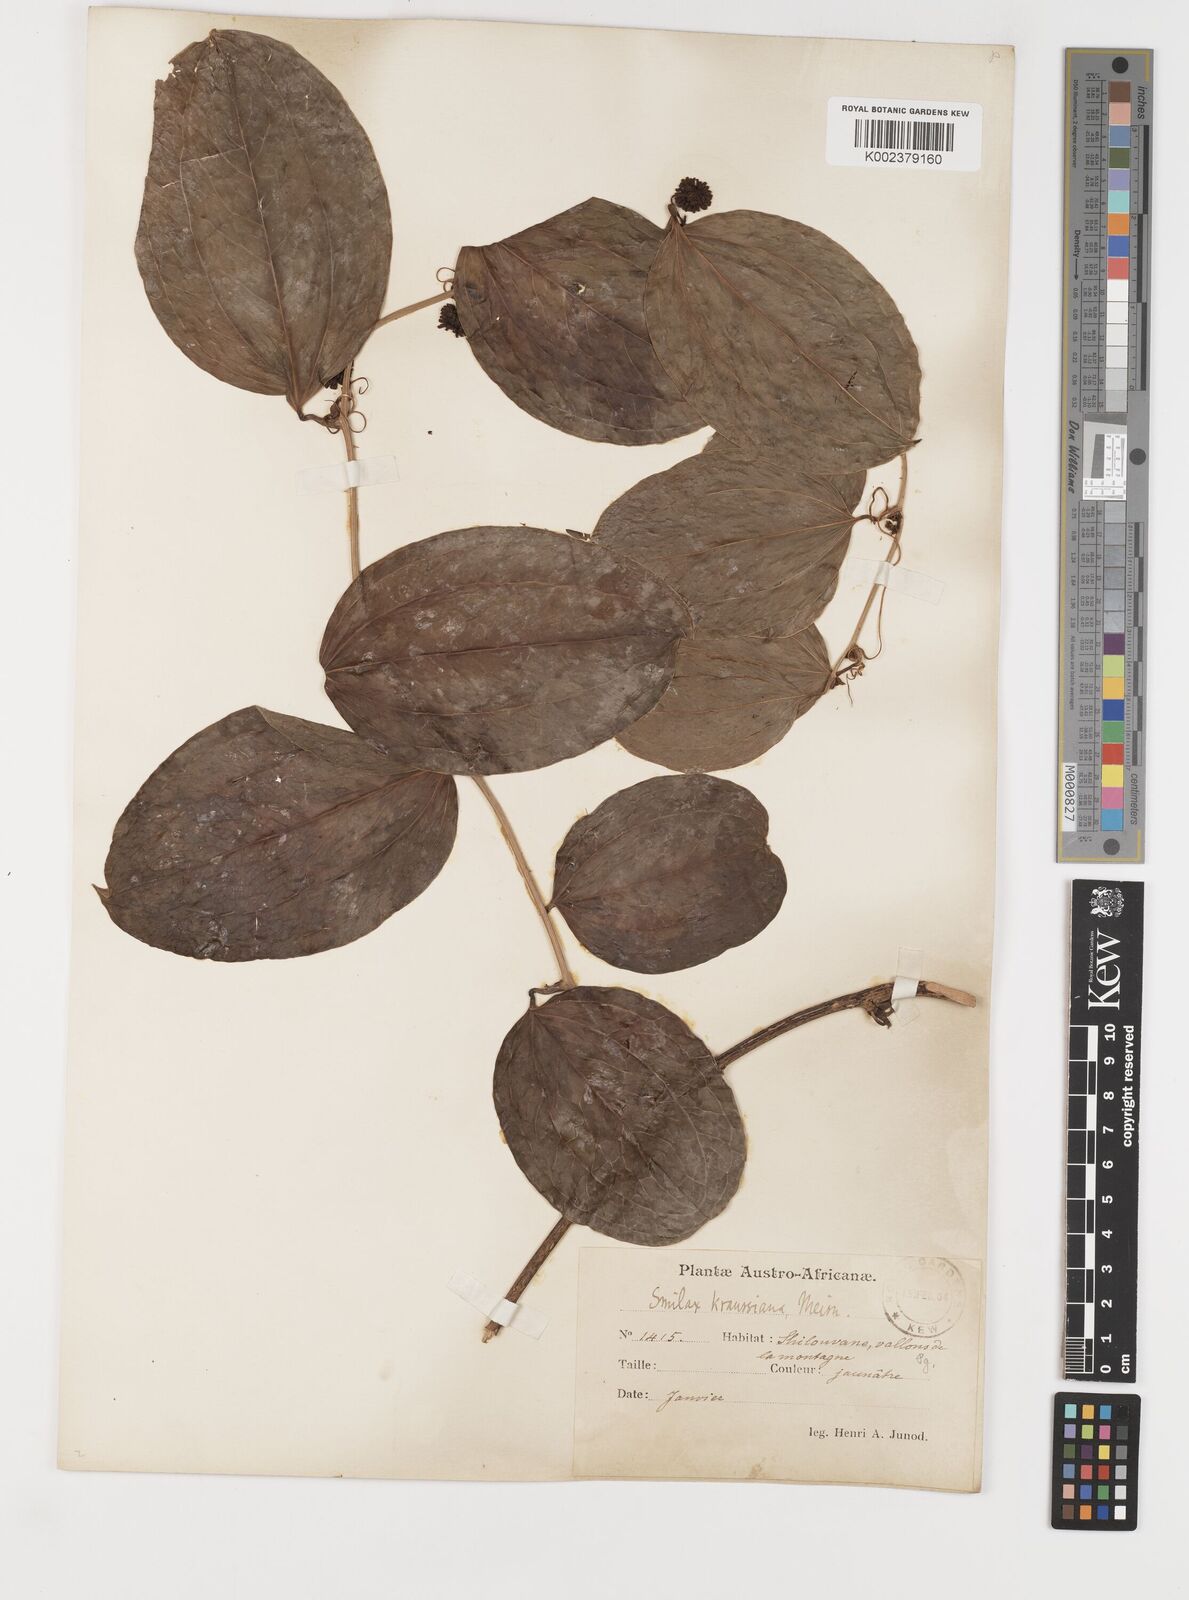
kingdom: Plantae
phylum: Tracheophyta
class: Liliopsida
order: Liliales
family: Smilacaceae
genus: Smilax
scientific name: Smilax anceps
